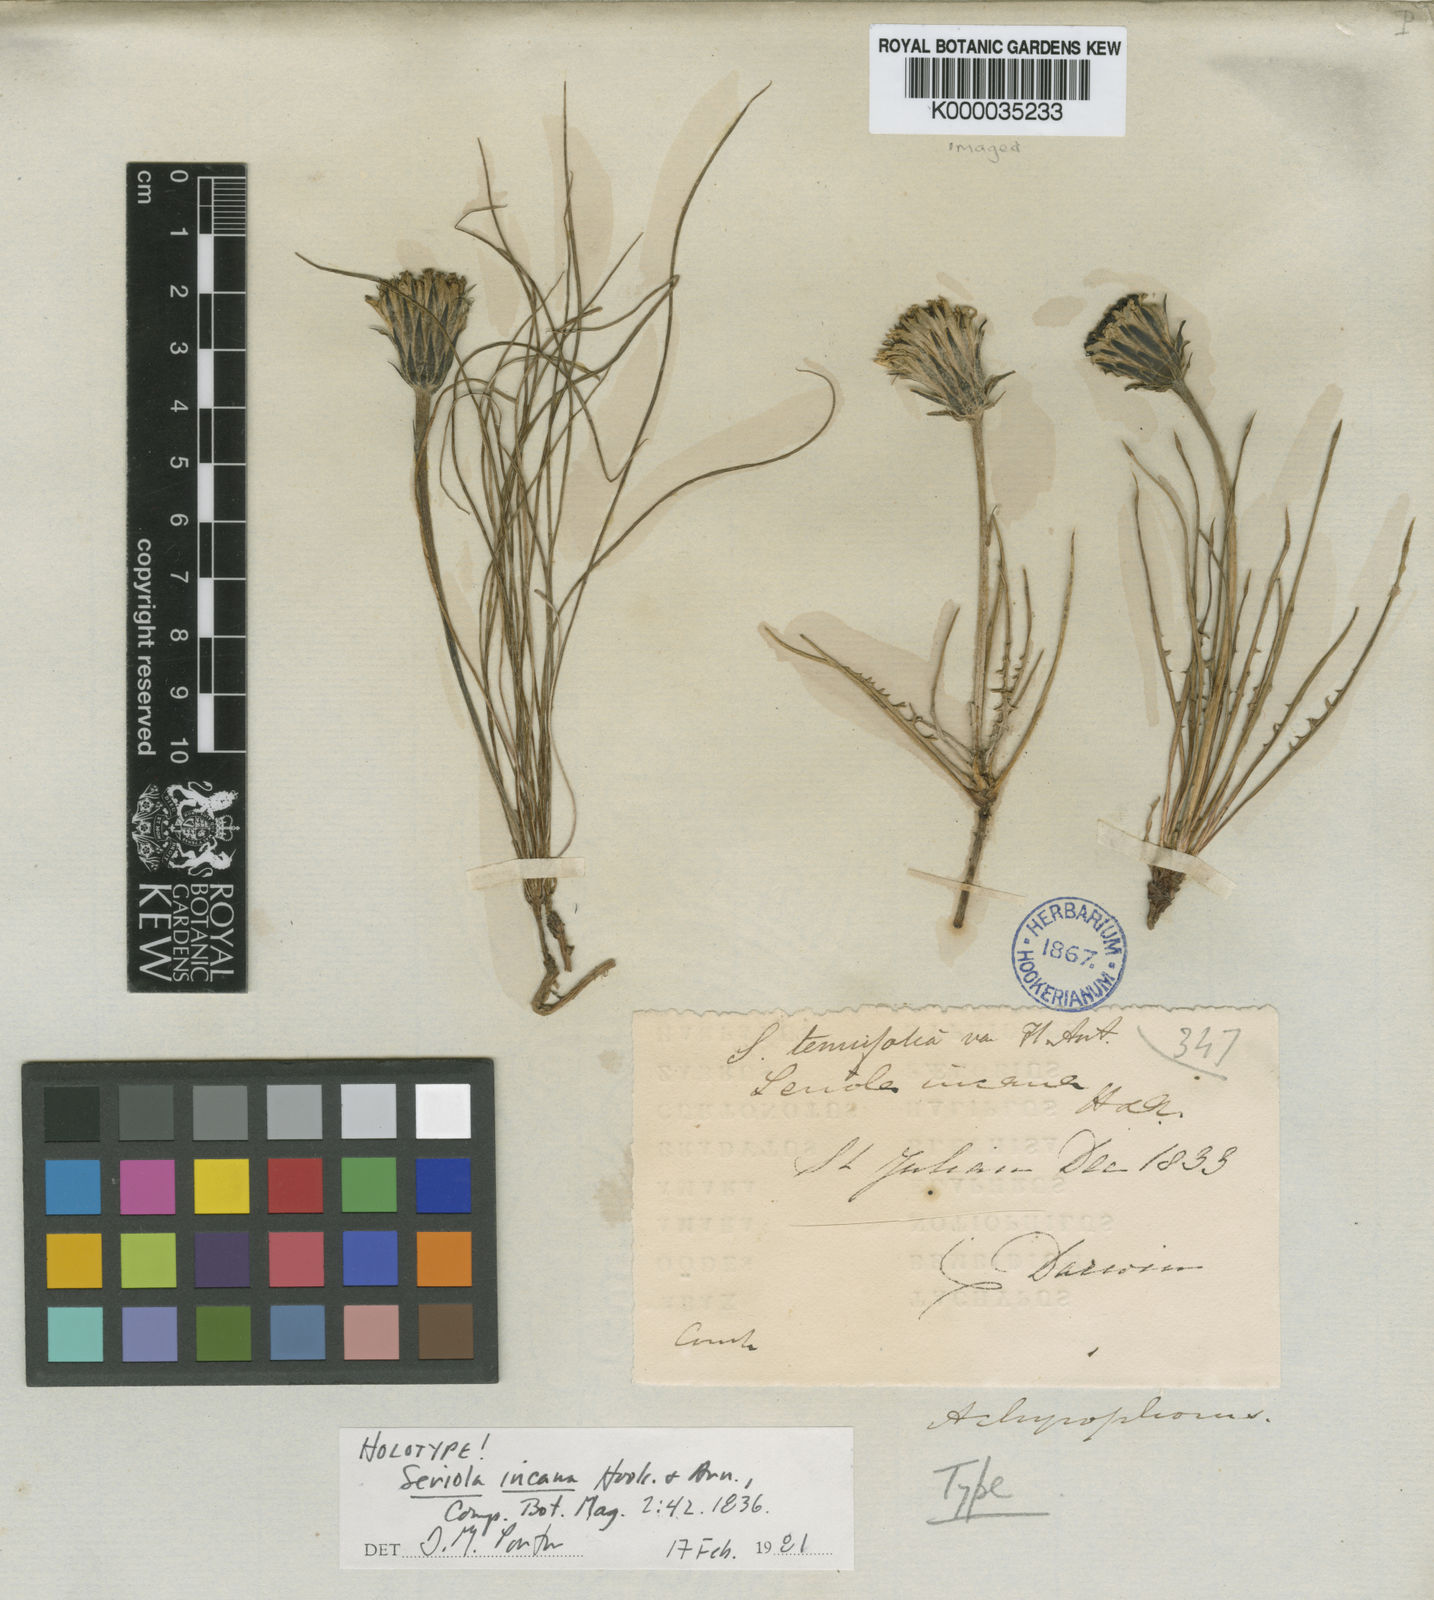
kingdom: Plantae
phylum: Tracheophyta
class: Magnoliopsida
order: Asterales
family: Asteraceae
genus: Hypochaeris
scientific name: Hypochaeris incana
